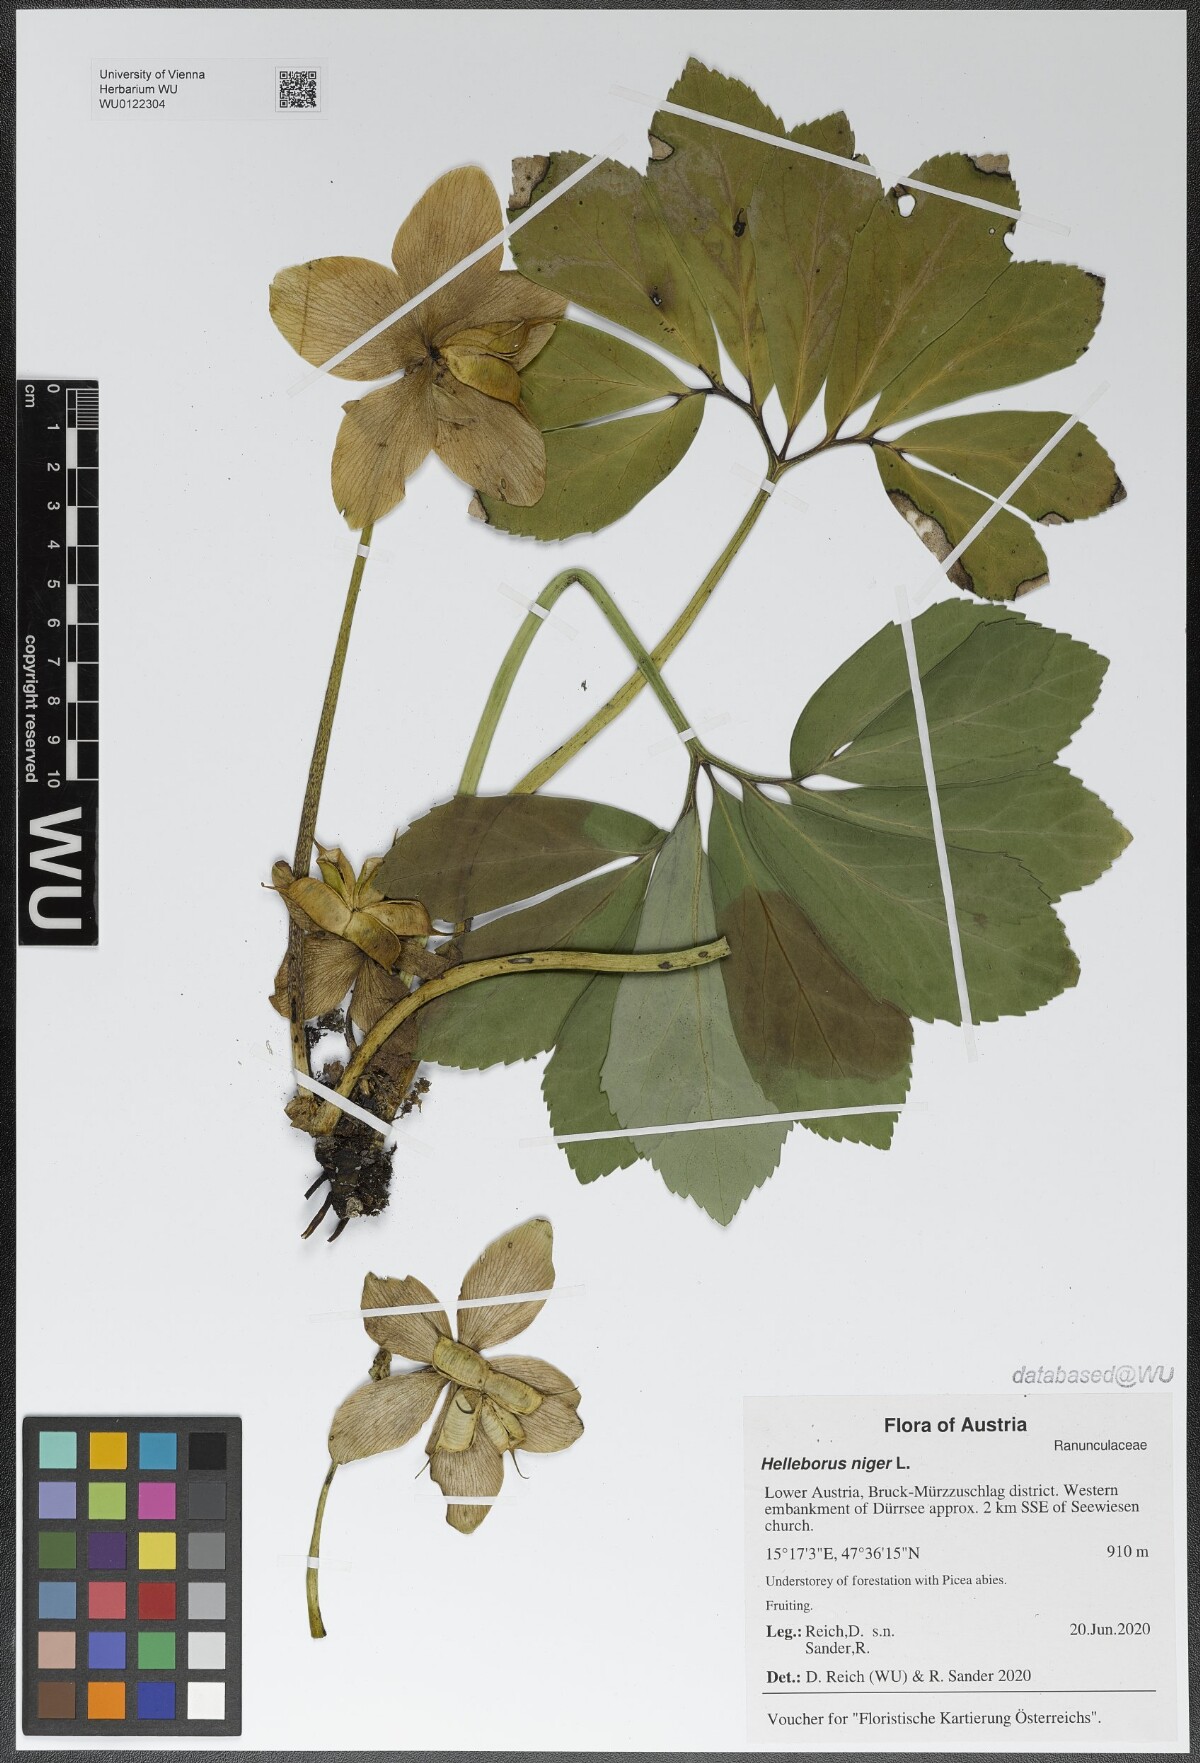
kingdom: Plantae
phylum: Tracheophyta
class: Magnoliopsida
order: Ranunculales
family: Ranunculaceae
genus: Helleborus
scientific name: Helleborus niger
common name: Black hellebore
